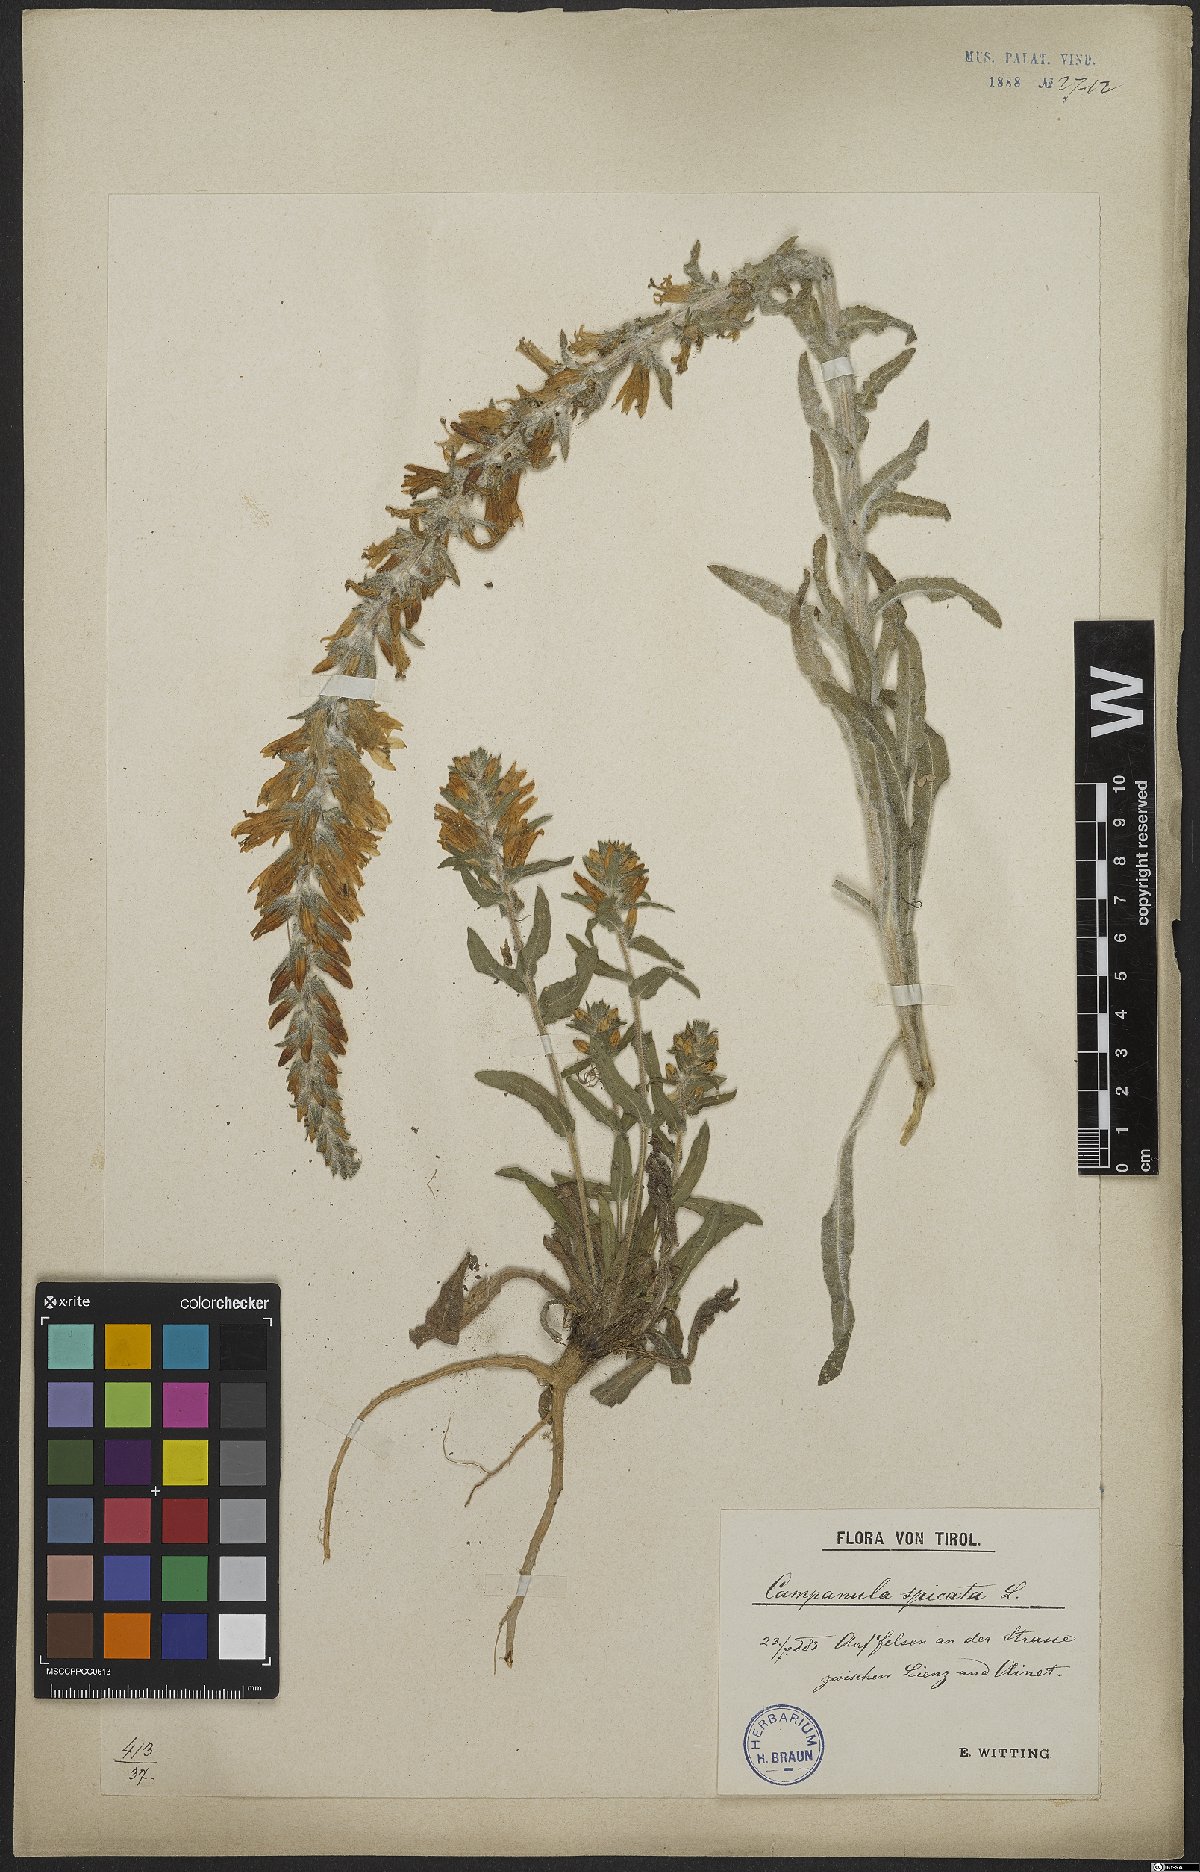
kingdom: Plantae
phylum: Tracheophyta
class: Magnoliopsida
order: Asterales
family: Campanulaceae
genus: Campanula
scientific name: Campanula spicata
